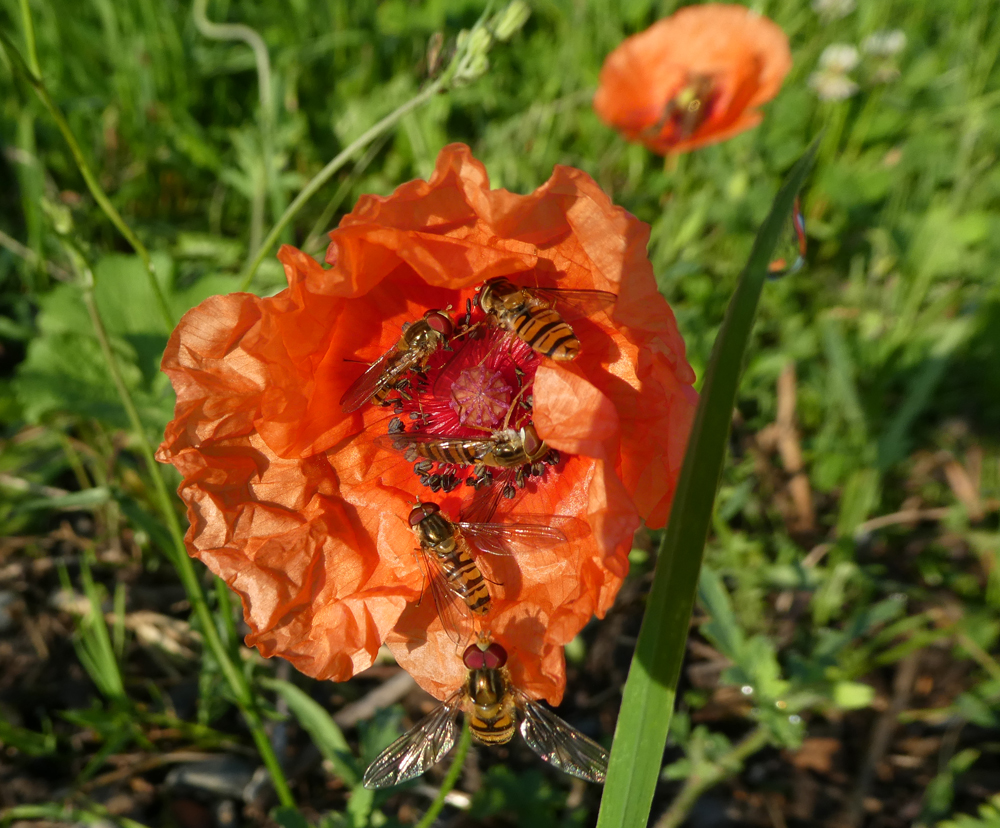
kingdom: Plantae
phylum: Tracheophyta
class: Magnoliopsida
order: Ranunculales
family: Papaveraceae
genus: Papaver
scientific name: Papaver dubium
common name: Long-headed poppy
